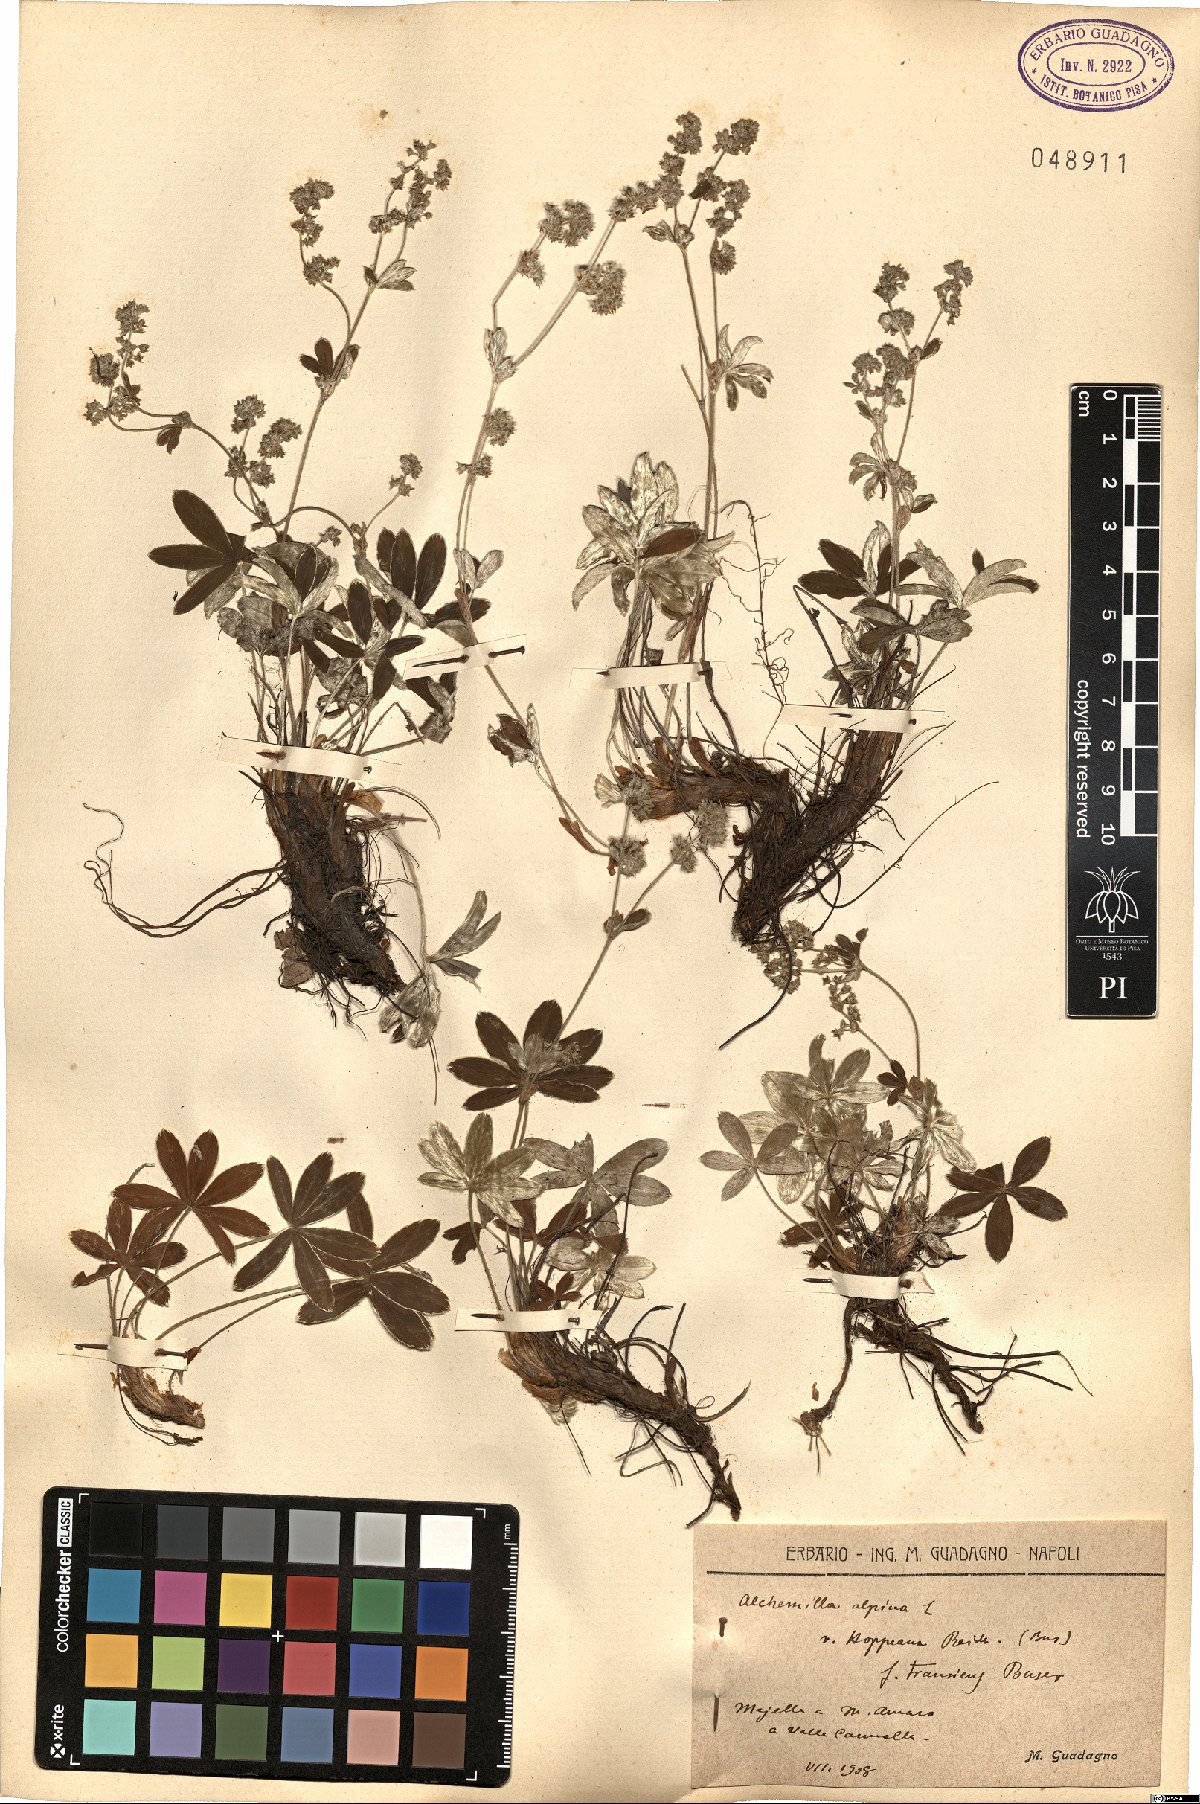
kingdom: Plantae
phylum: Tracheophyta
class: Magnoliopsida
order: Rosales
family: Rosaceae
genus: Alchemilla
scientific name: Alchemilla nitida
